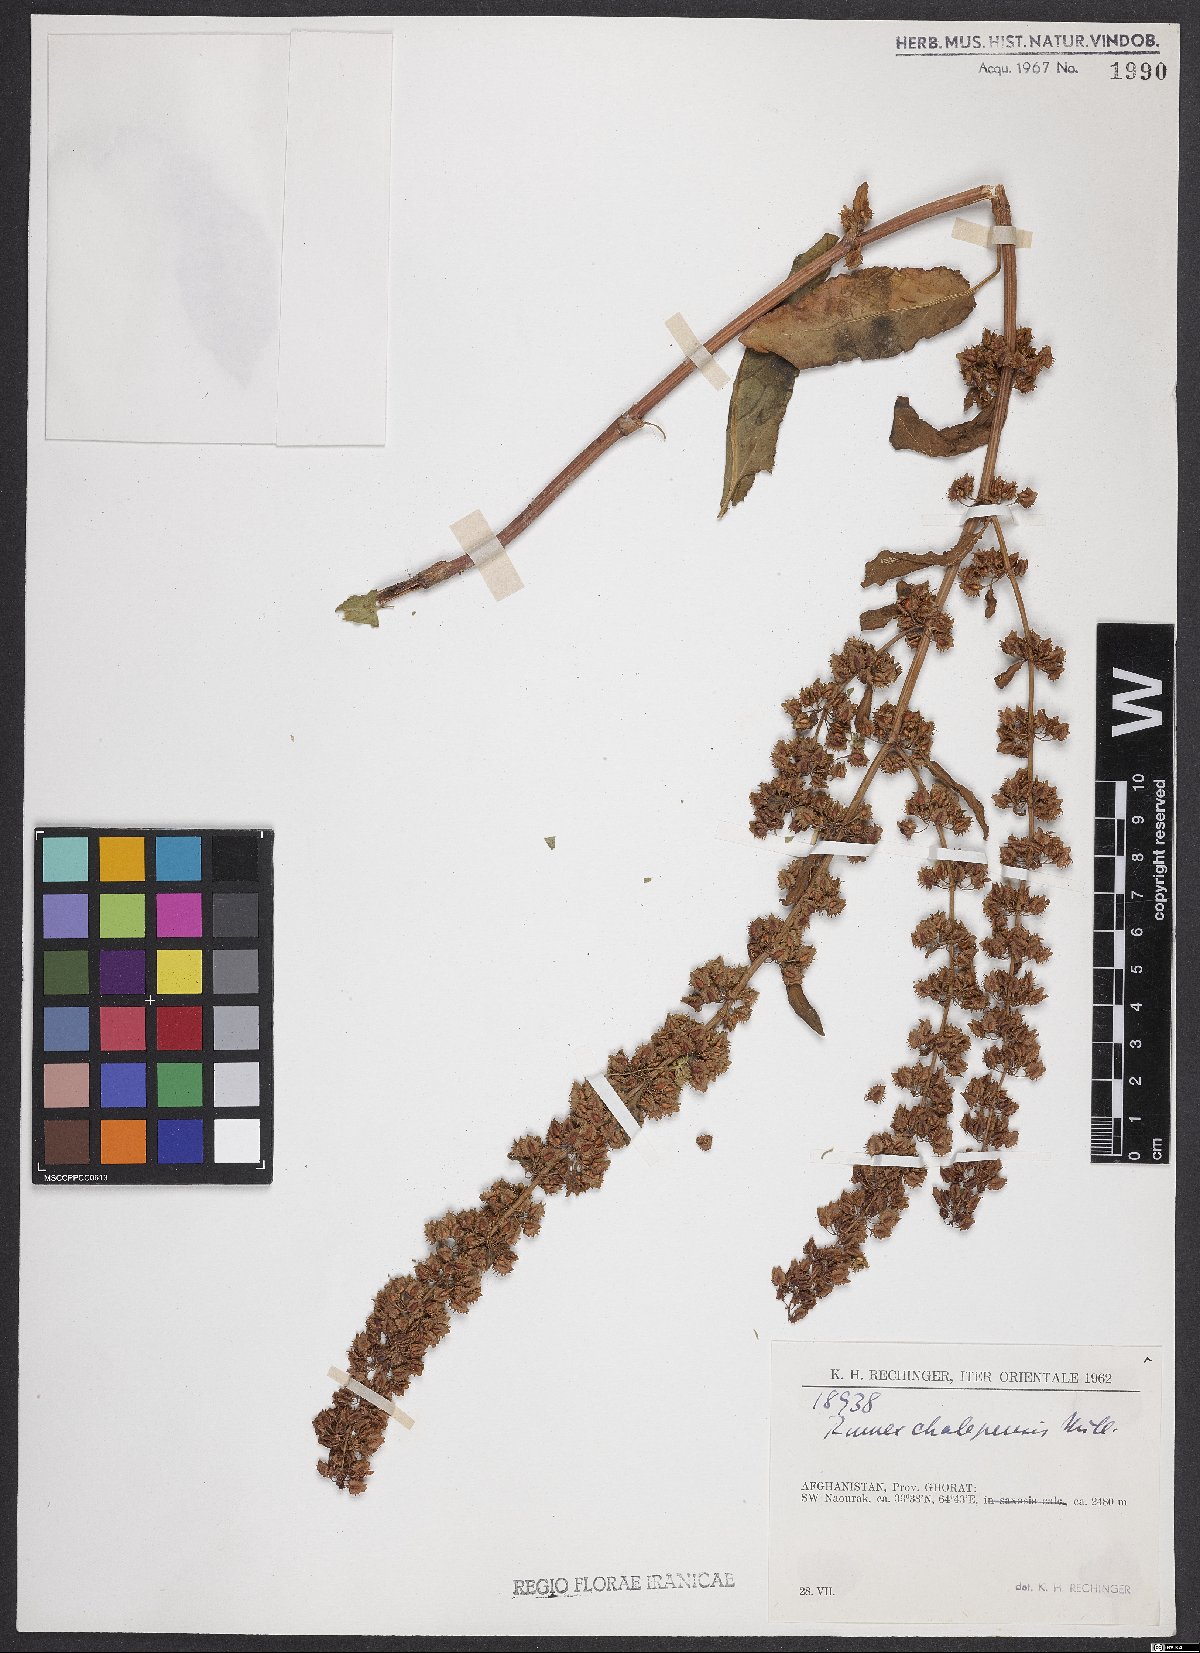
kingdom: Plantae
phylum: Tracheophyta
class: Magnoliopsida
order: Caryophyllales
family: Polygonaceae
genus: Rumex
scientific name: Rumex chalepensis
